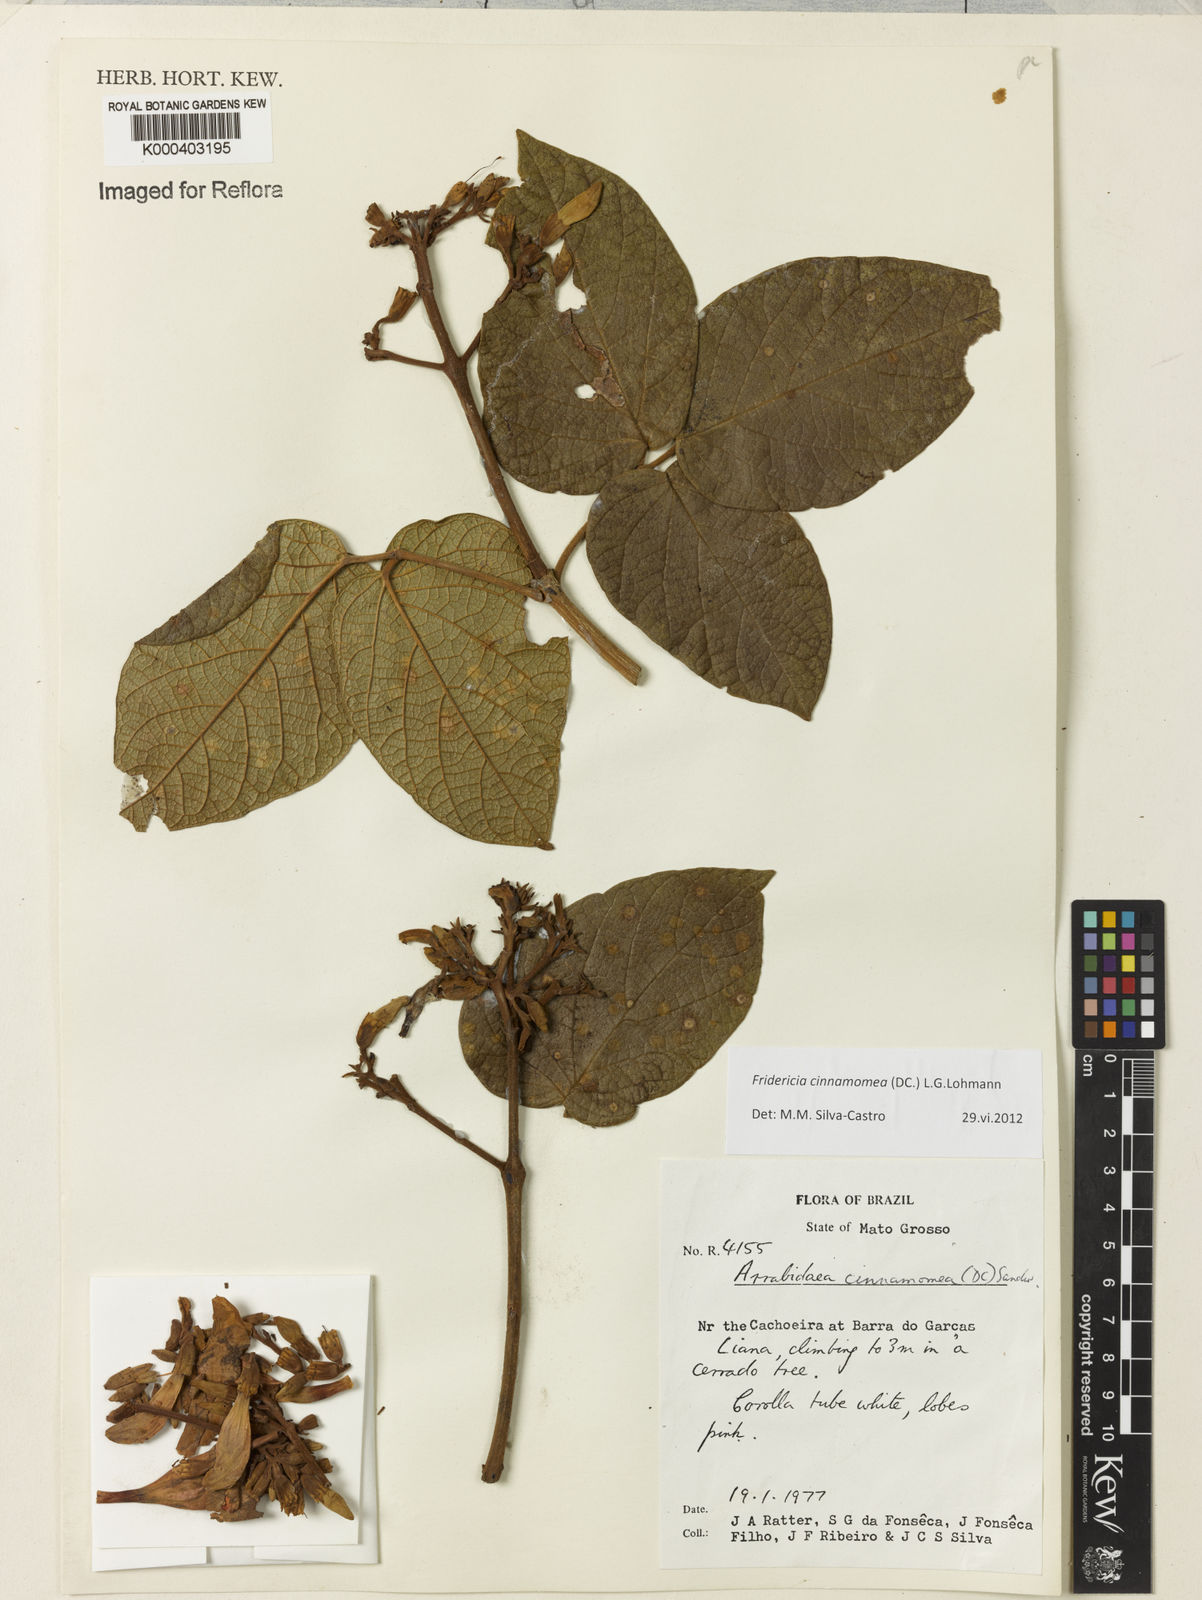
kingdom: Plantae
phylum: Tracheophyta
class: Magnoliopsida
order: Lamiales
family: Bignoniaceae
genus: Fridericia
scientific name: Fridericia cinnamomea
